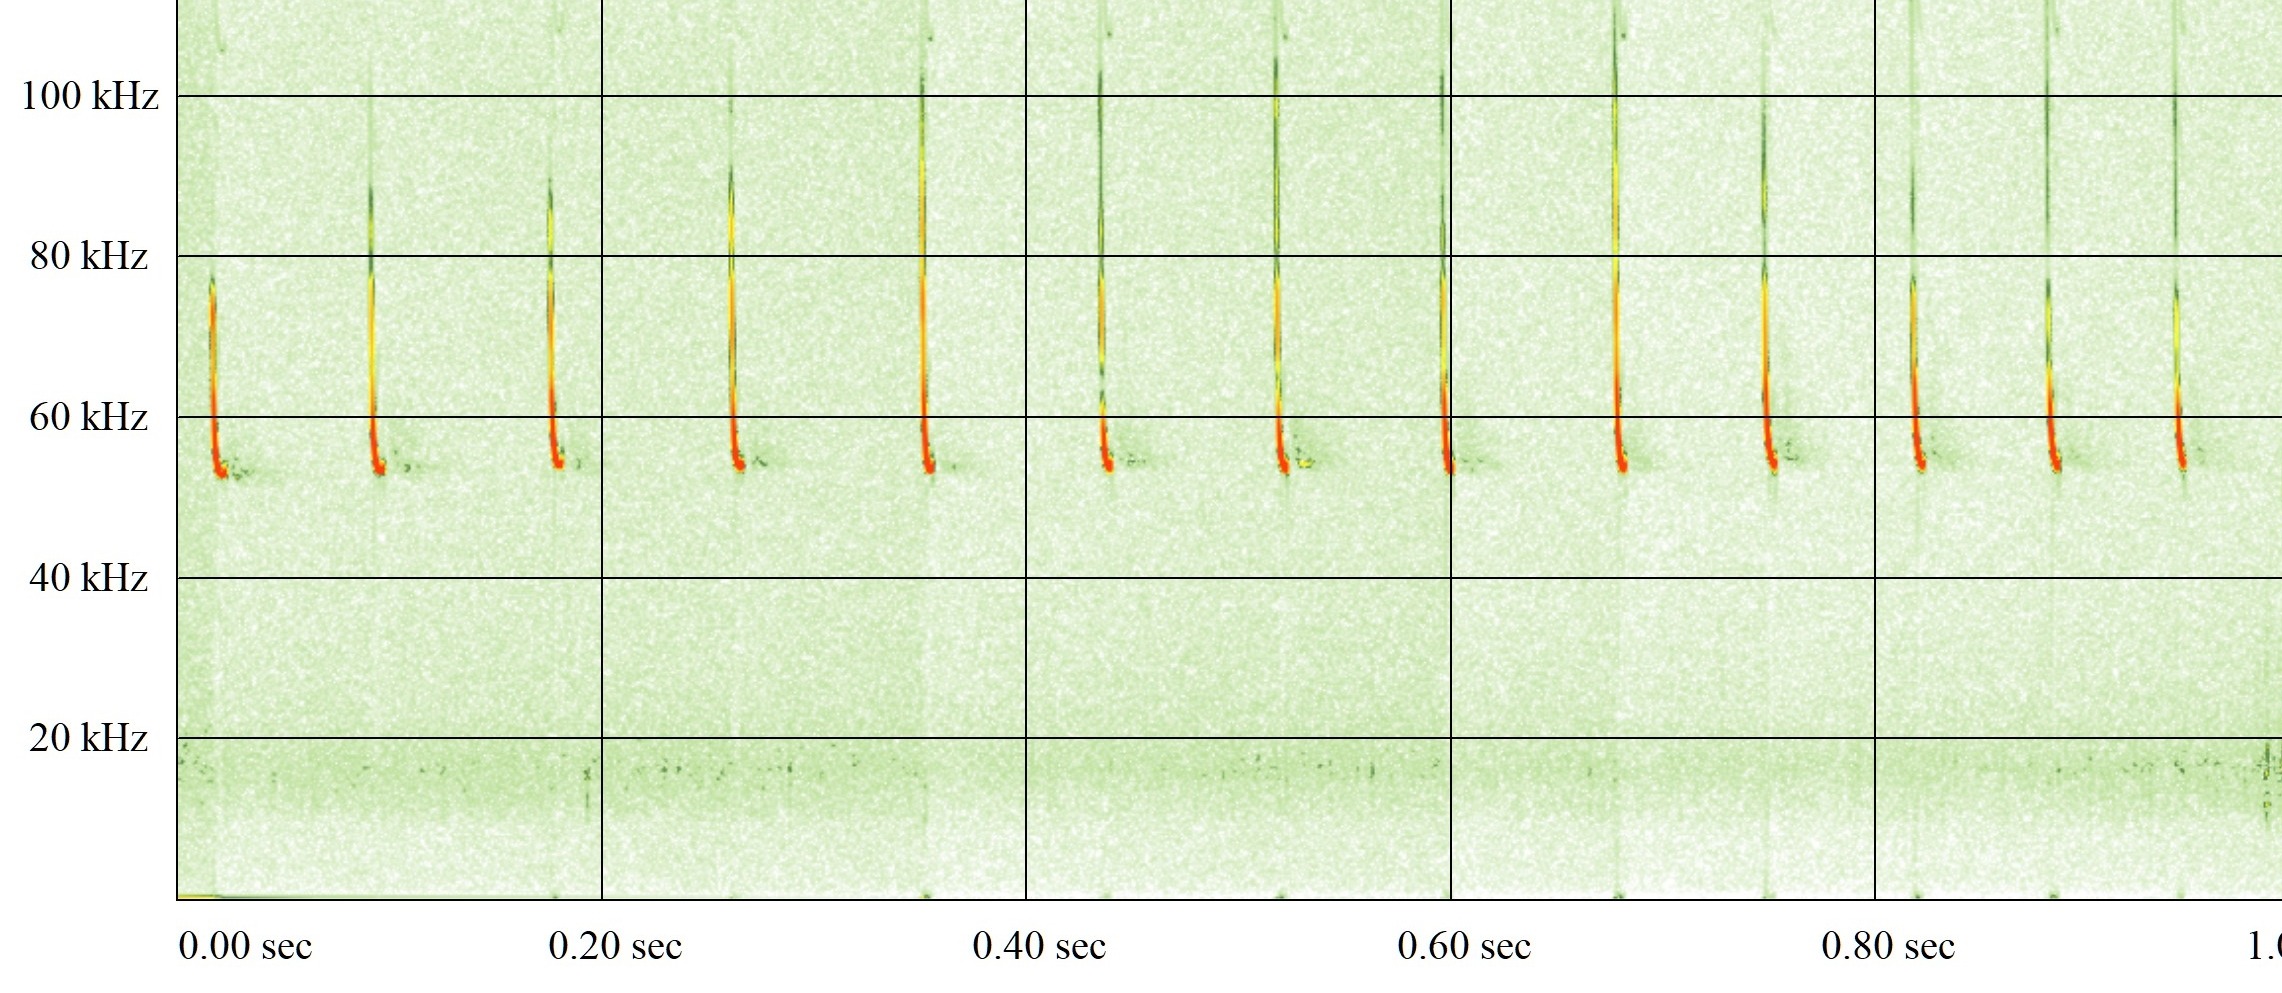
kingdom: Animalia
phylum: Chordata
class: Mammalia
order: Chiroptera
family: Vespertilionidae
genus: Pipistrellus
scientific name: Pipistrellus pygmaeus
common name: Dværgflagermus
